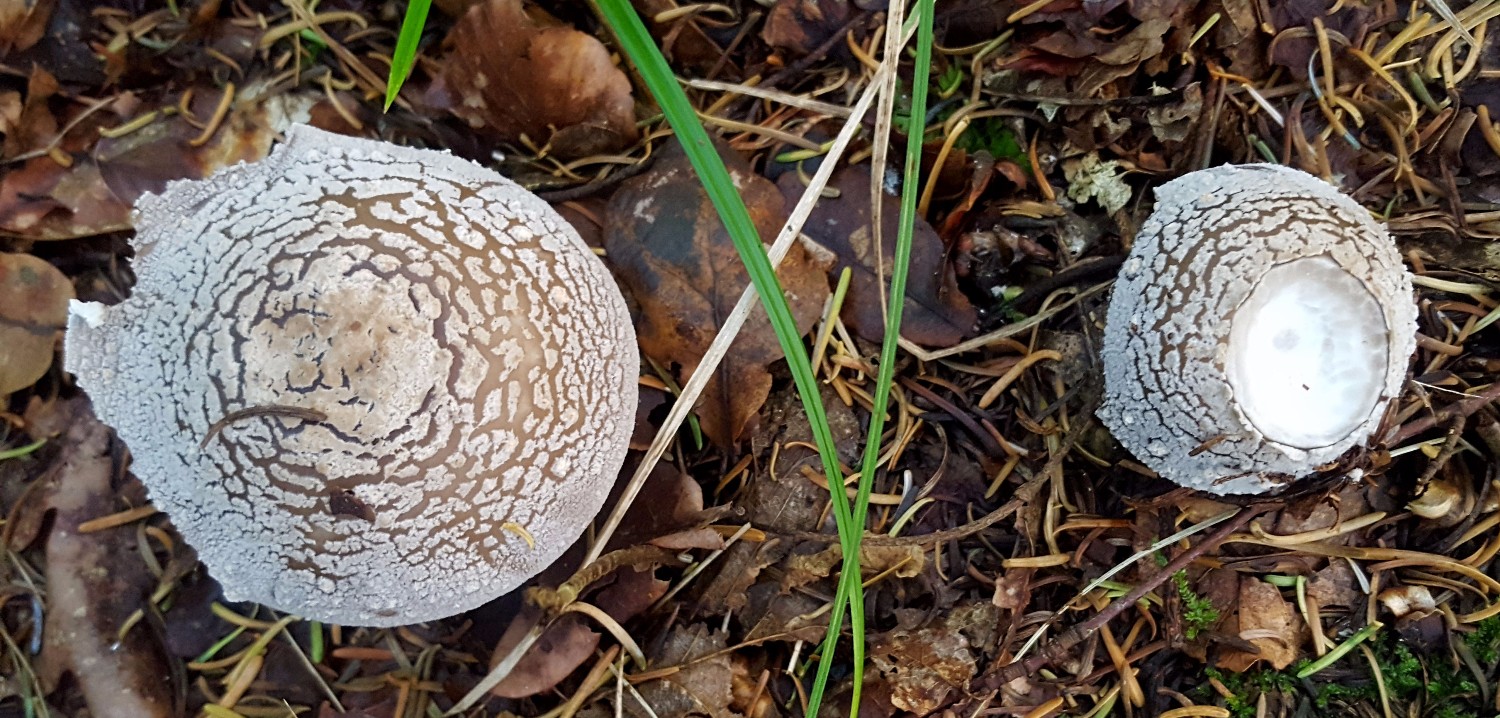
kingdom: Fungi
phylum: Basidiomycota
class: Agaricomycetes
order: Agaricales
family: Amanitaceae
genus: Amanita
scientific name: Amanita
